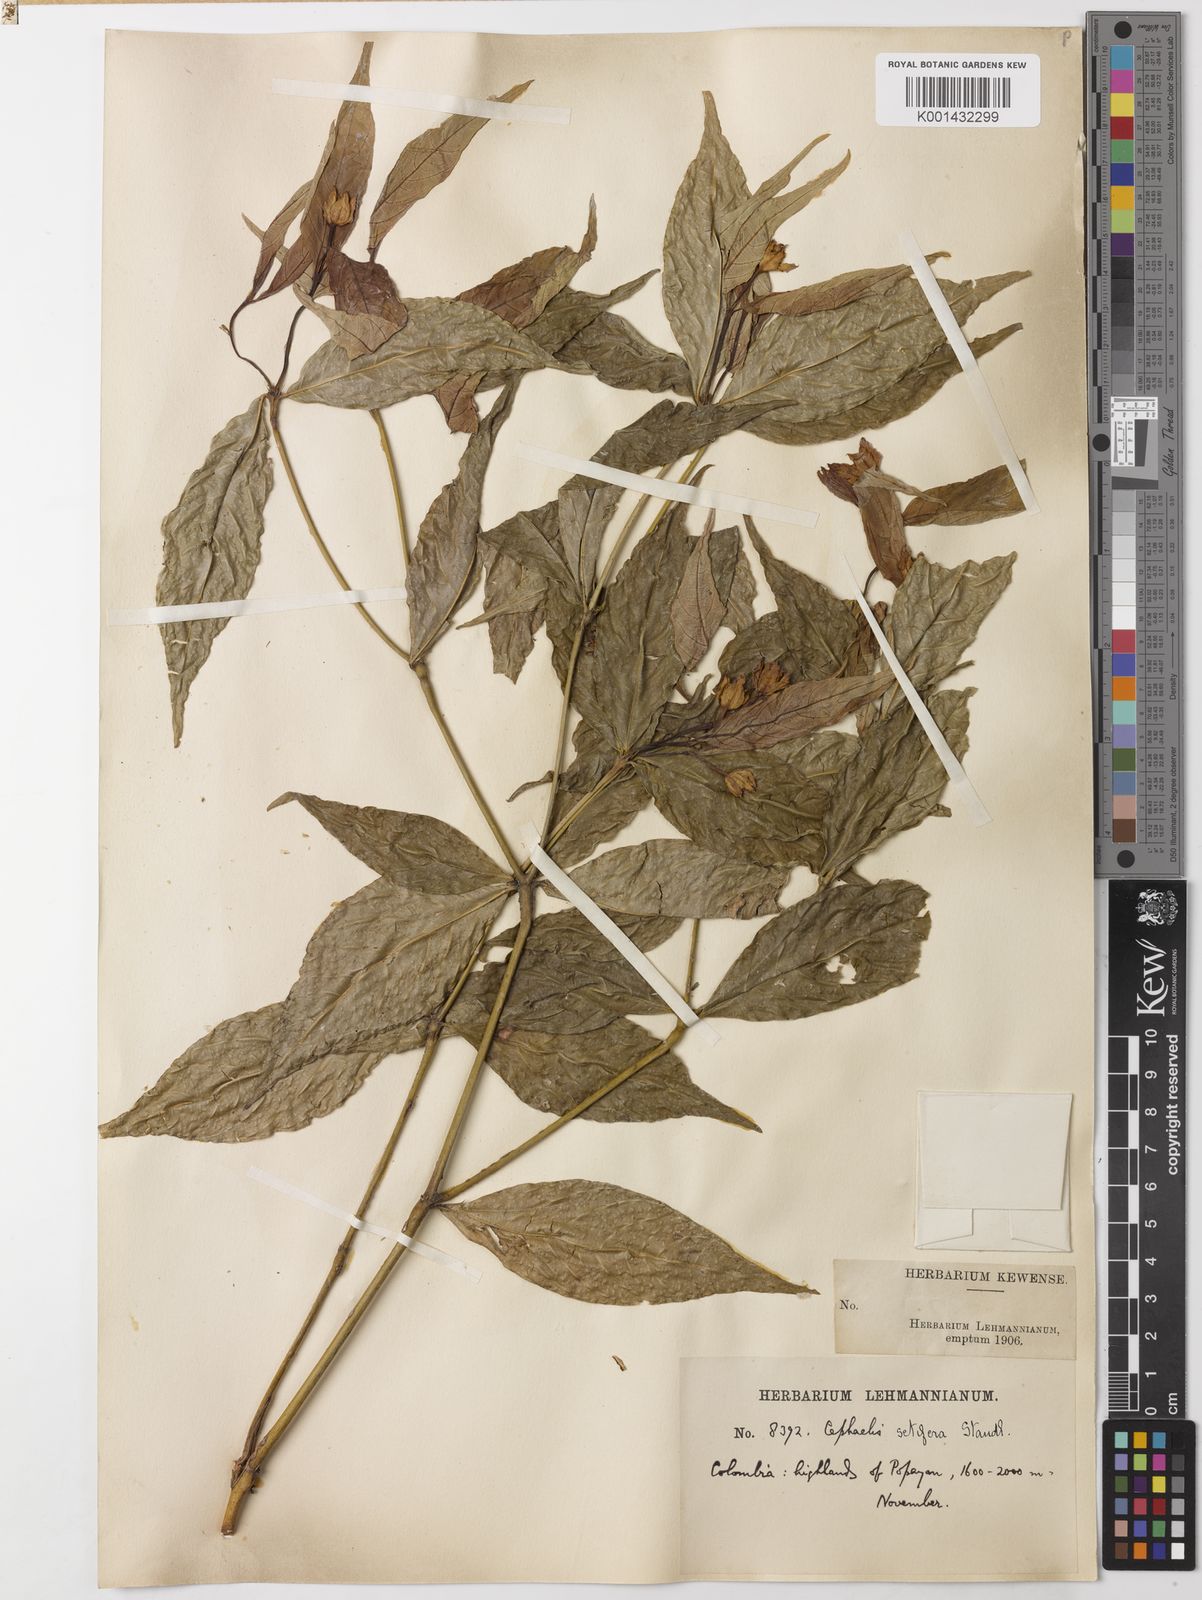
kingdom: Plantae
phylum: Tracheophyta
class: Magnoliopsida
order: Gentianales
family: Rubiaceae
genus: Palicourea
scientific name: Palicourea violacea
